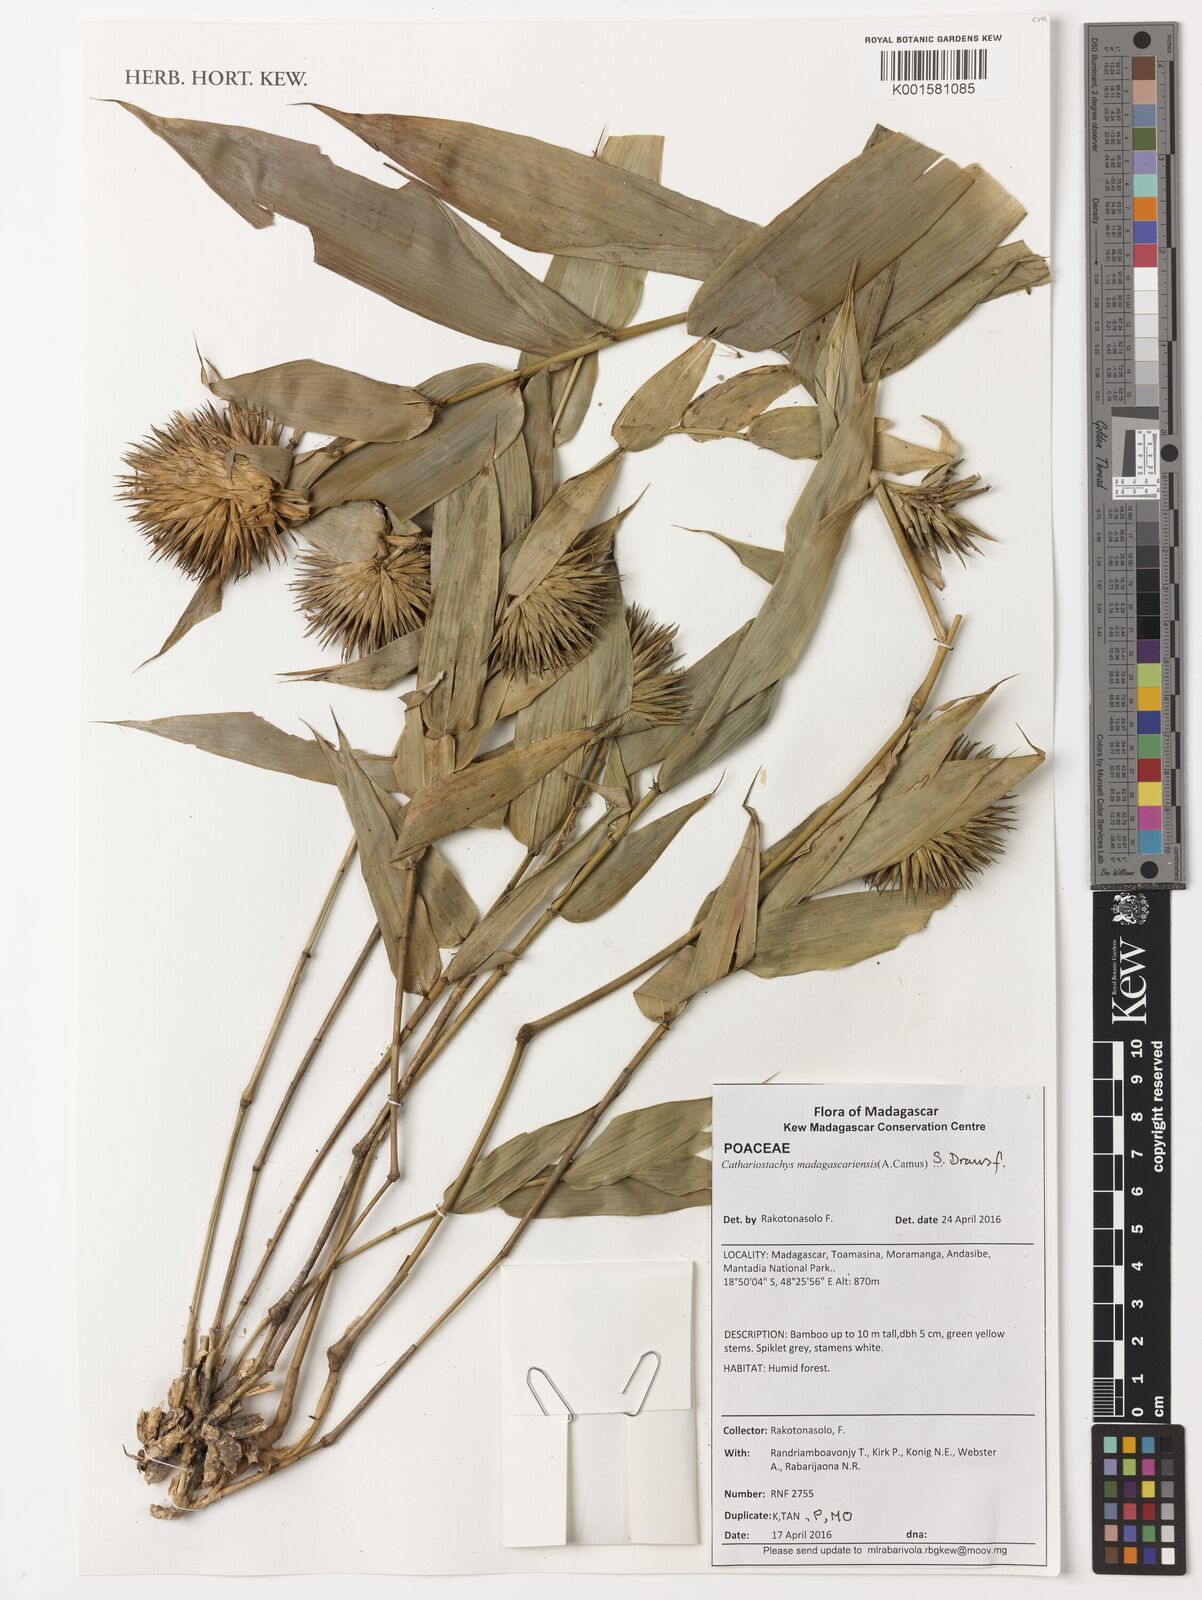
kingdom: Plantae
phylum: Tracheophyta
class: Liliopsida
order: Poales
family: Poaceae
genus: Cathariostachys
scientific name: Cathariostachys madagascariensis
